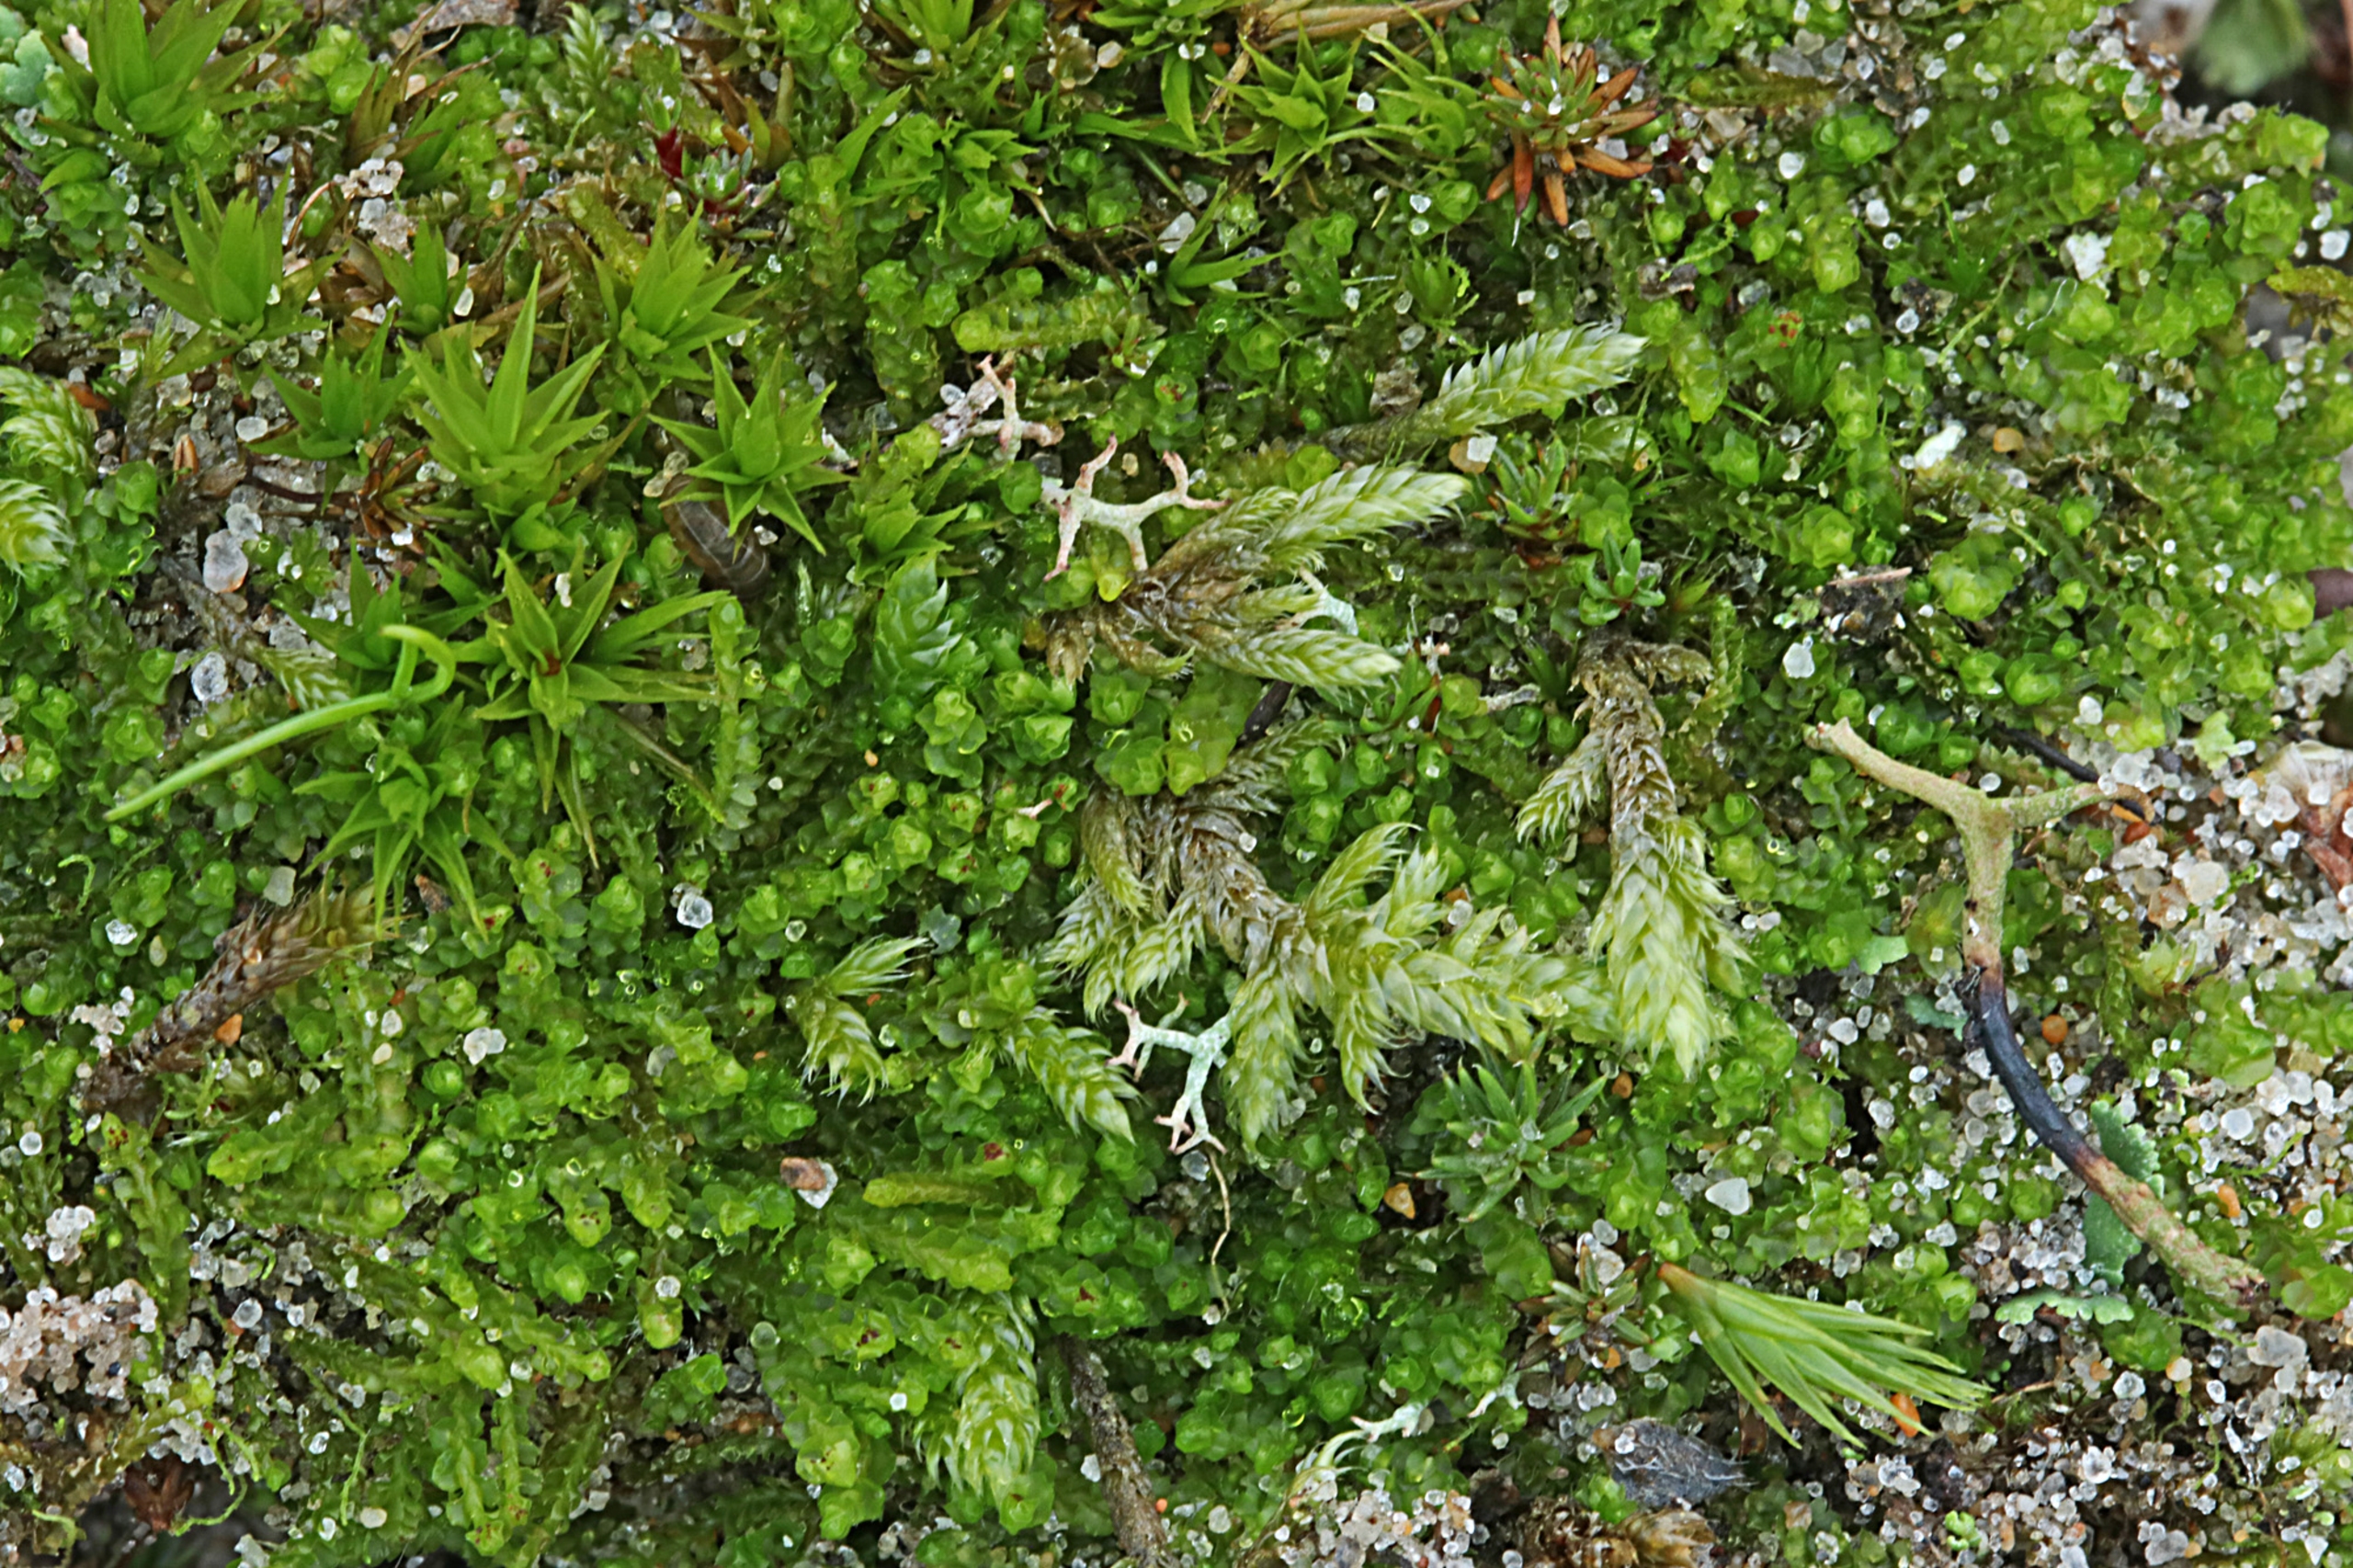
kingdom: Plantae
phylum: Marchantiophyta
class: Jungermanniopsida
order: Jungermanniales
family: Anastrophyllaceae
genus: Barbilophozia
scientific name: Barbilophozia hatcheri
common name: Spidsfliget flerfligmos
